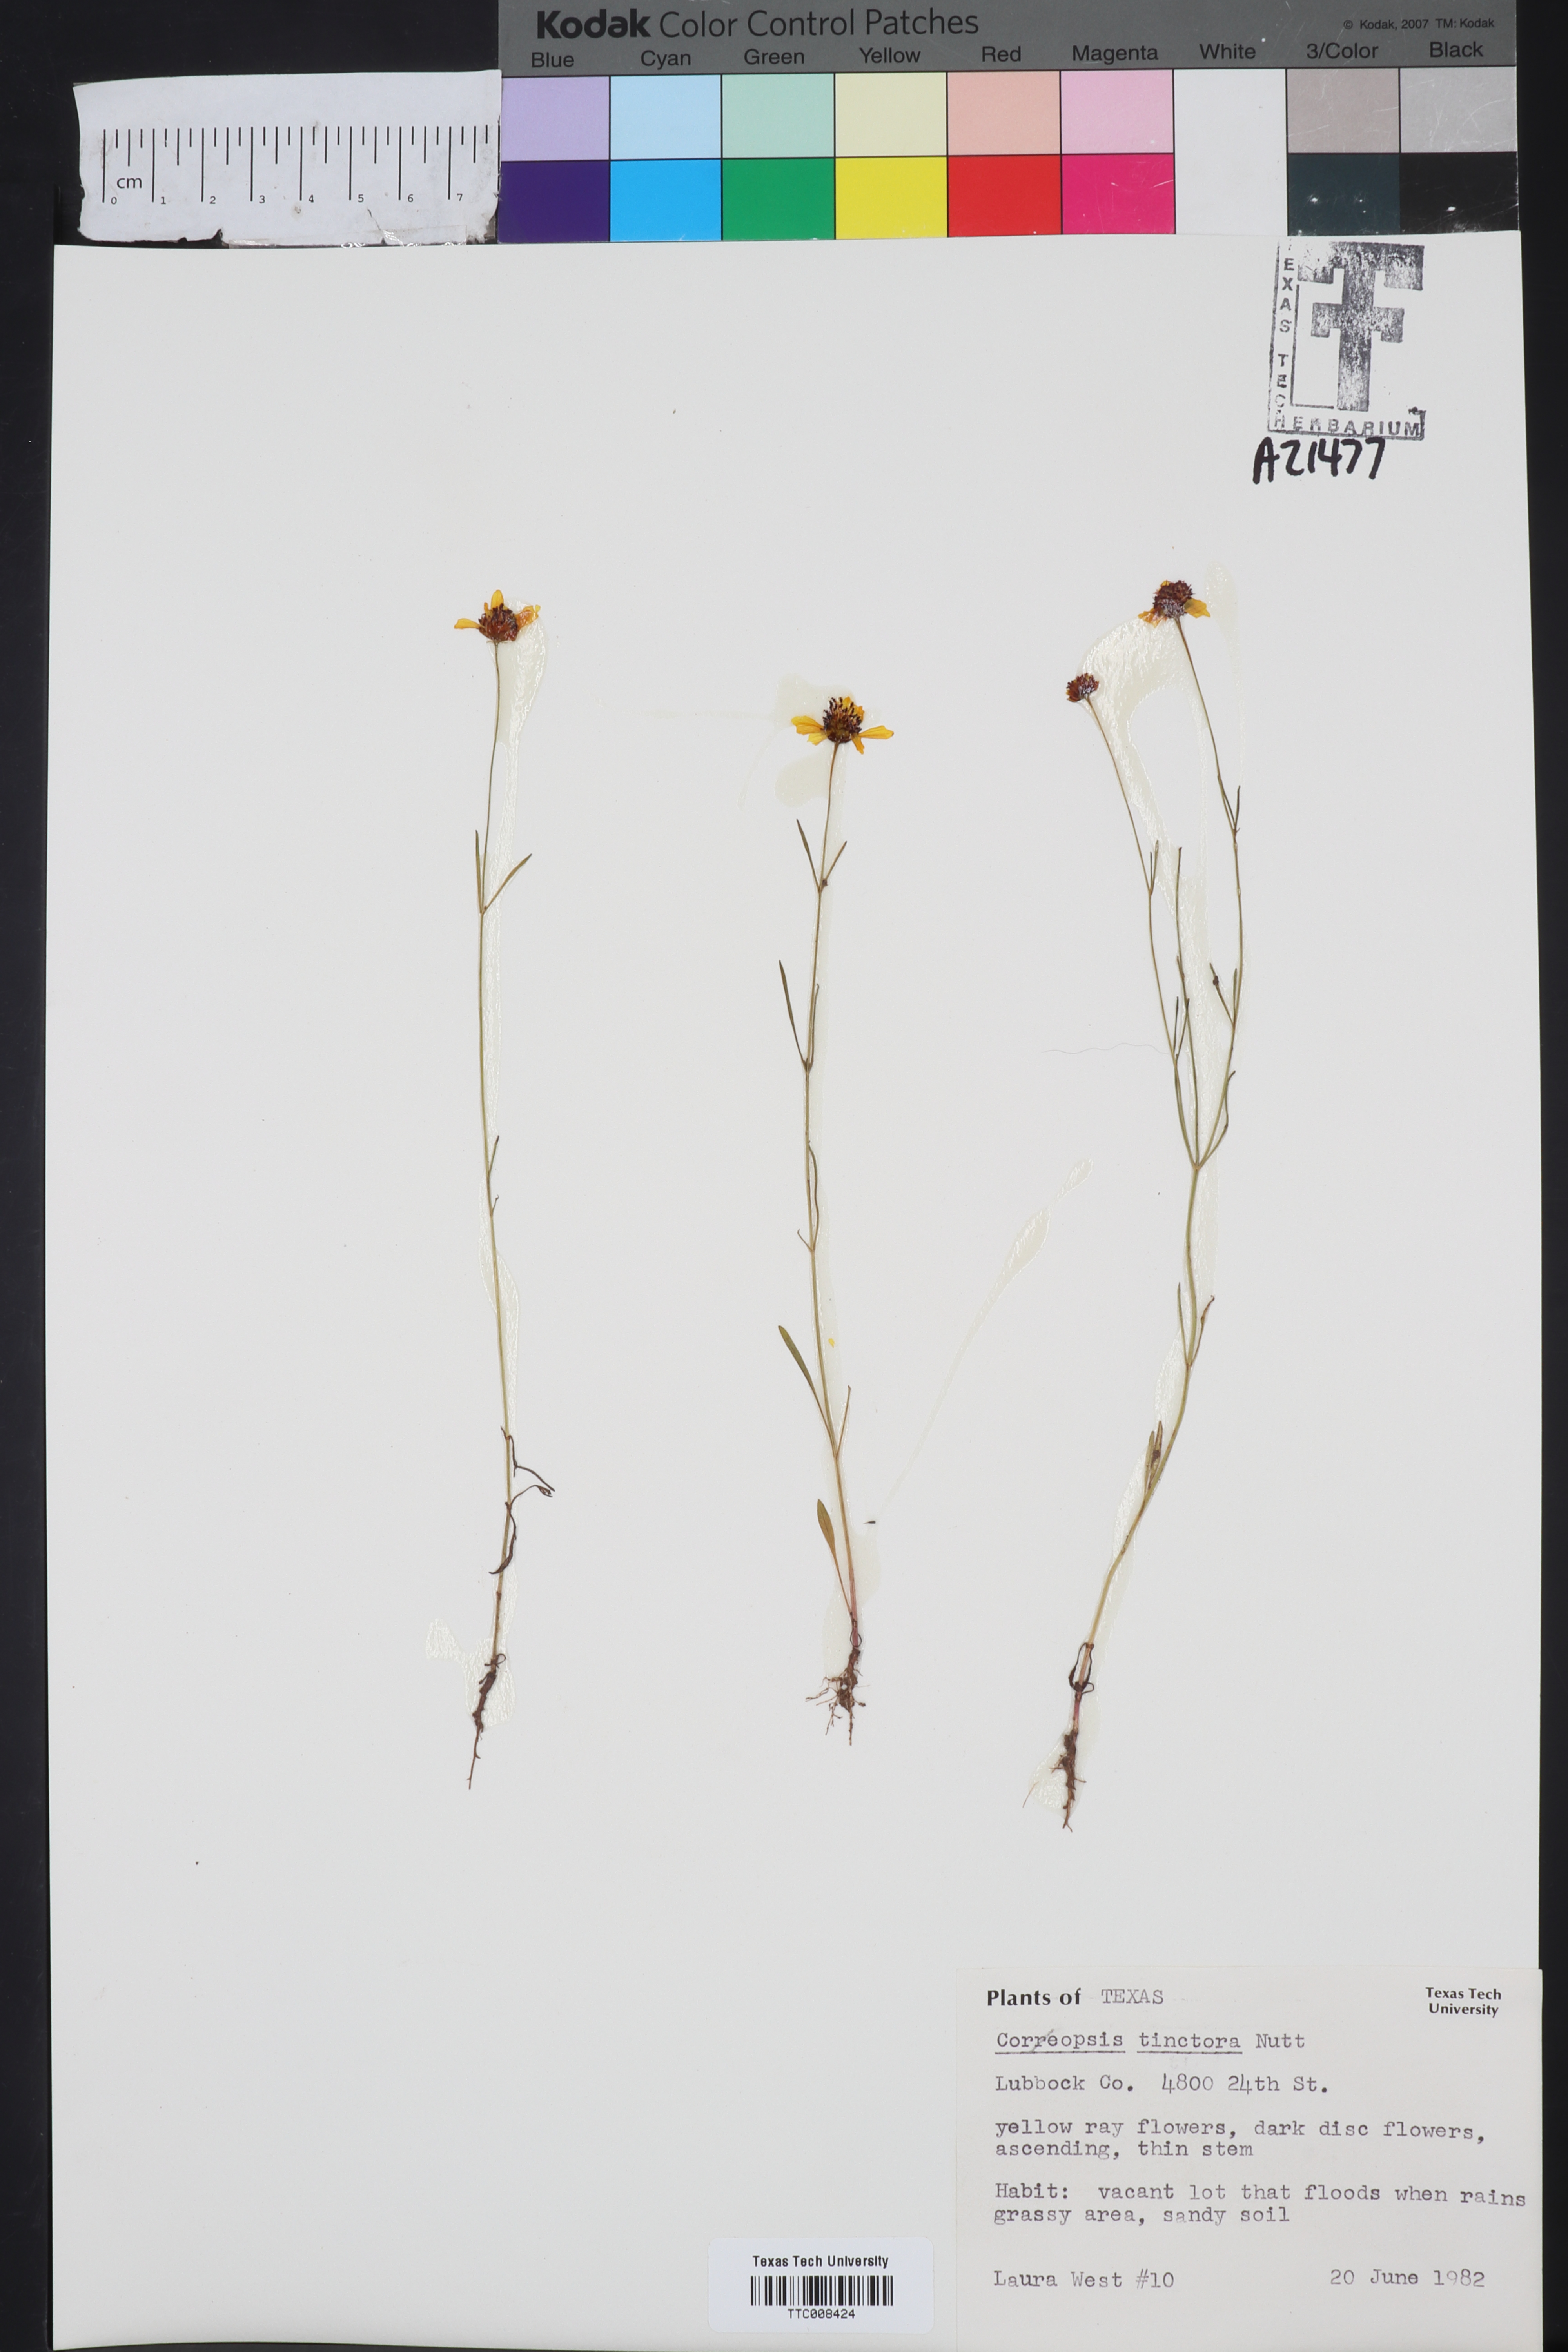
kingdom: Plantae
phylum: Tracheophyta
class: Magnoliopsida
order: Asterales
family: Asteraceae
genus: Coreopsis
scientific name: Coreopsis tinctoria
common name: Garden tickseed
